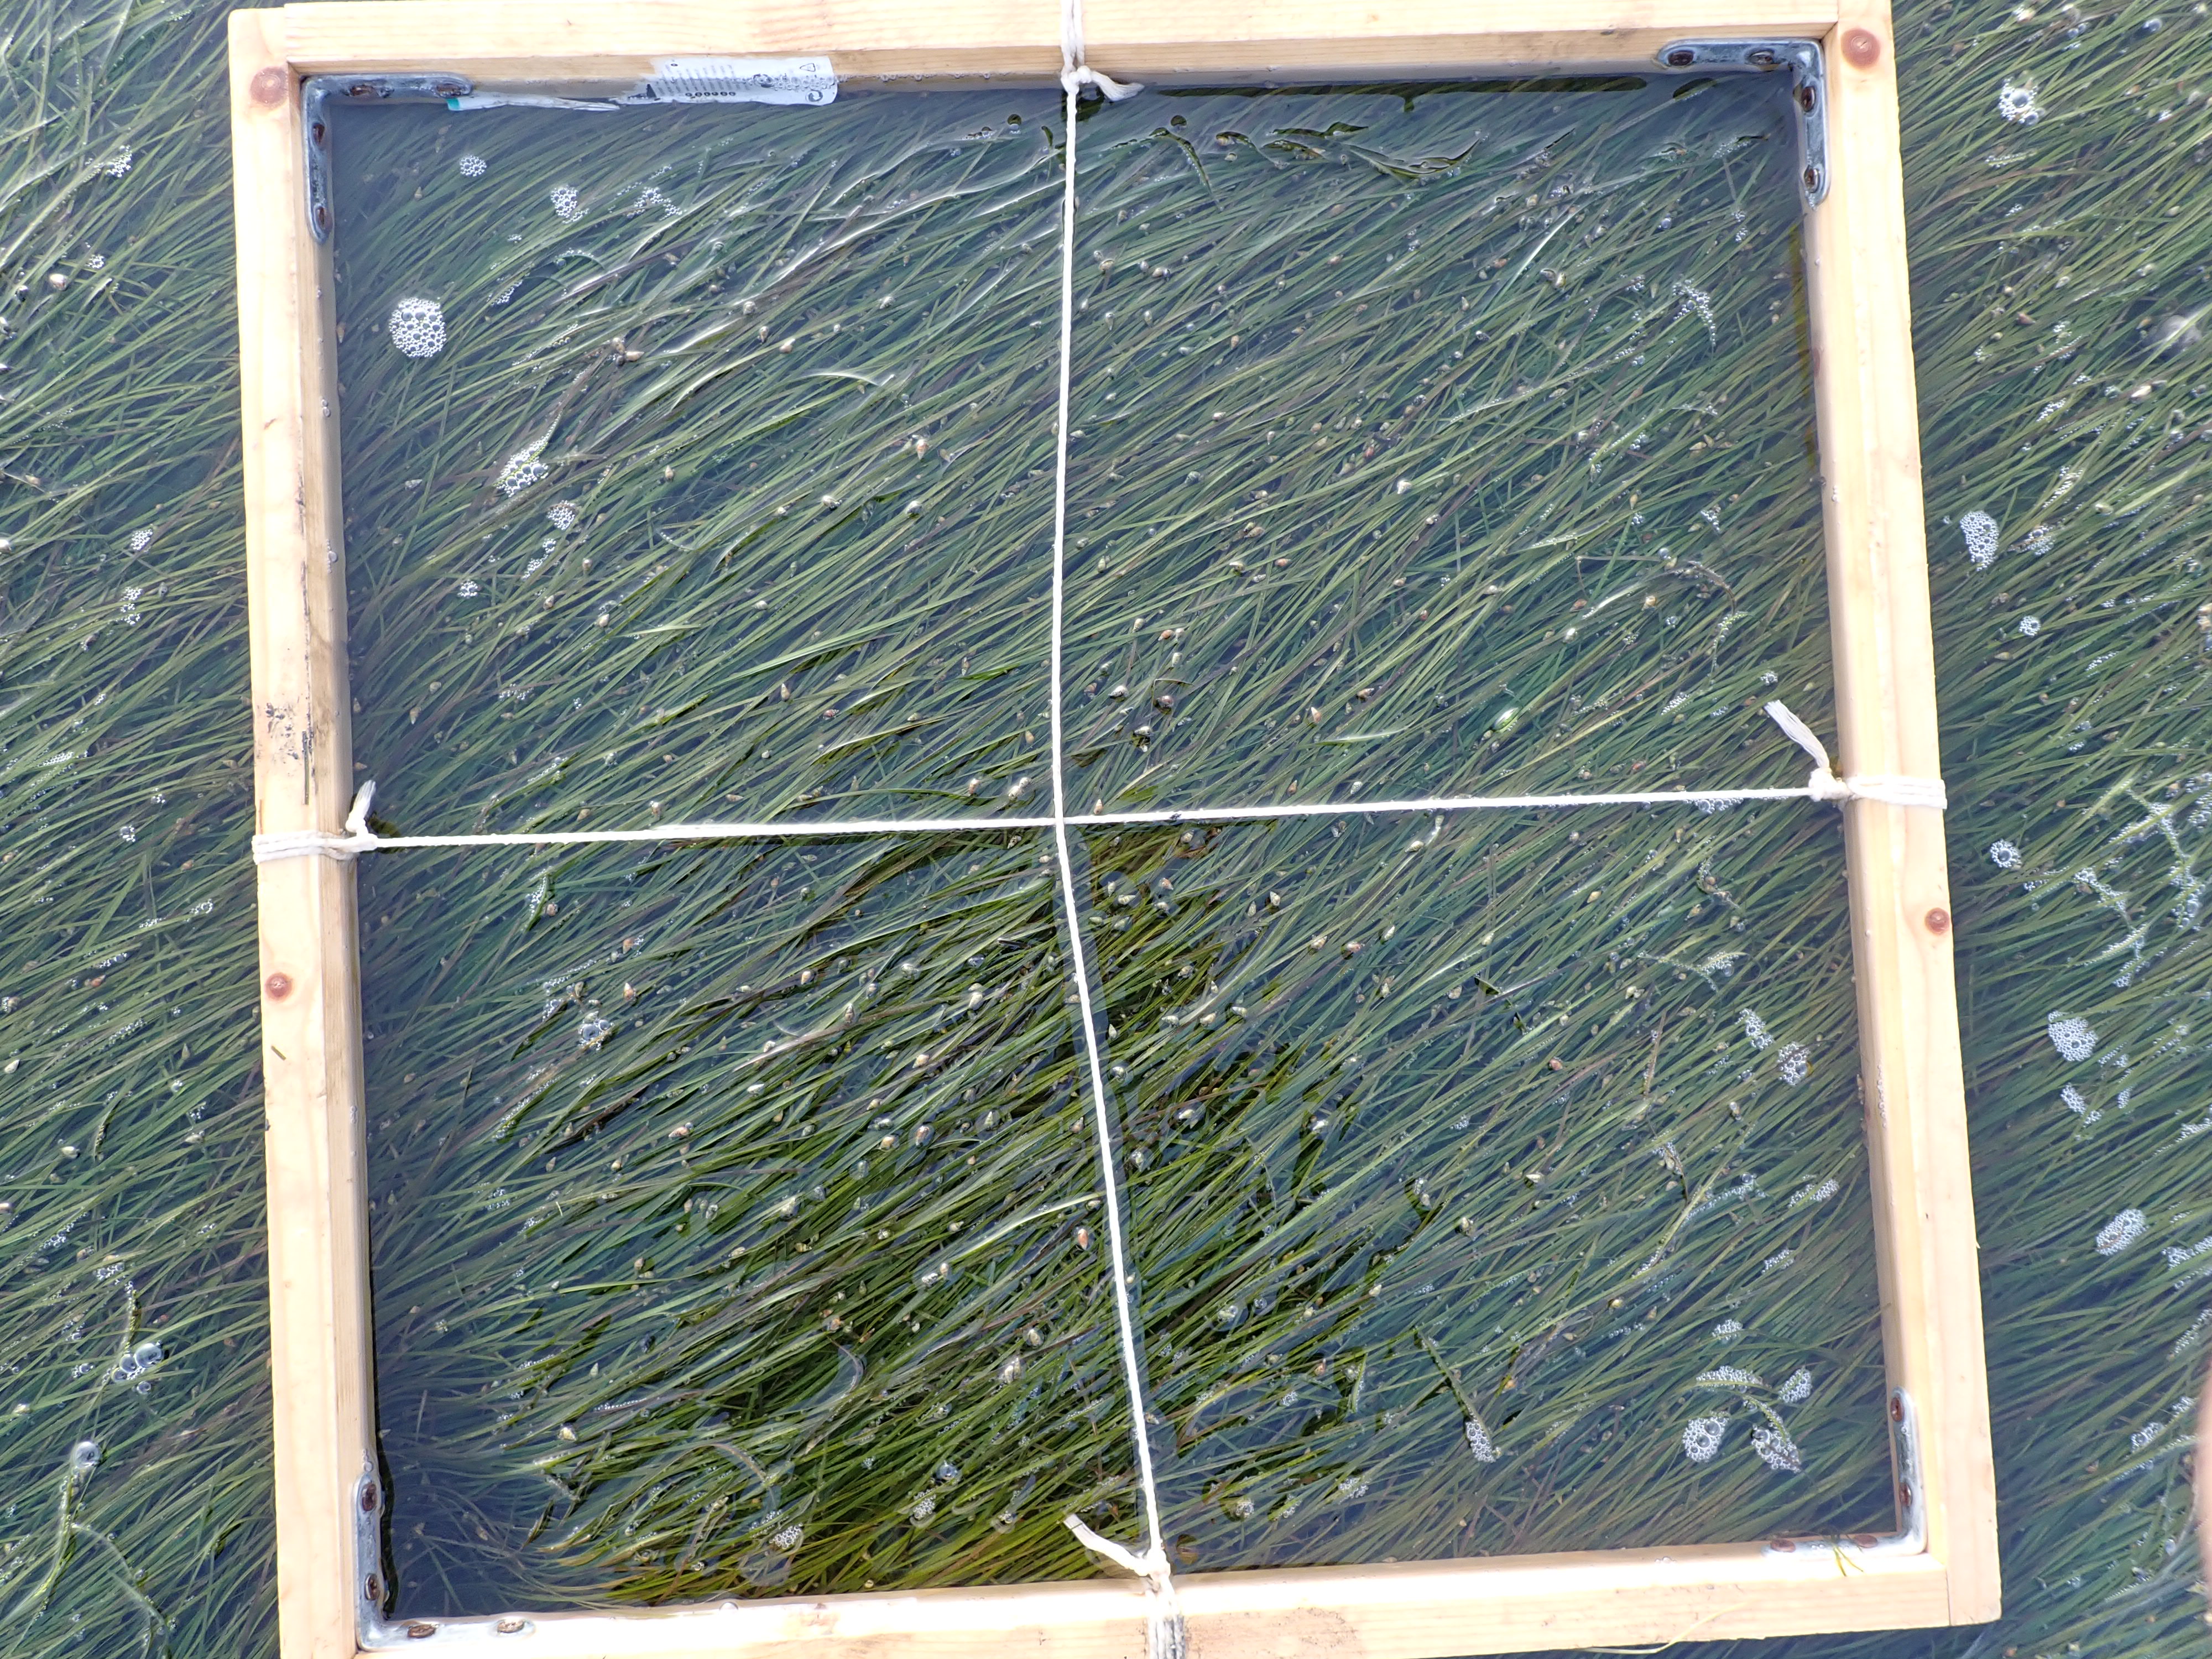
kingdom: Plantae
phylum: Tracheophyta
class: Liliopsida
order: Alismatales
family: Zosteraceae
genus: Zostera
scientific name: Zostera noltii
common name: Dwarf eelgrass
